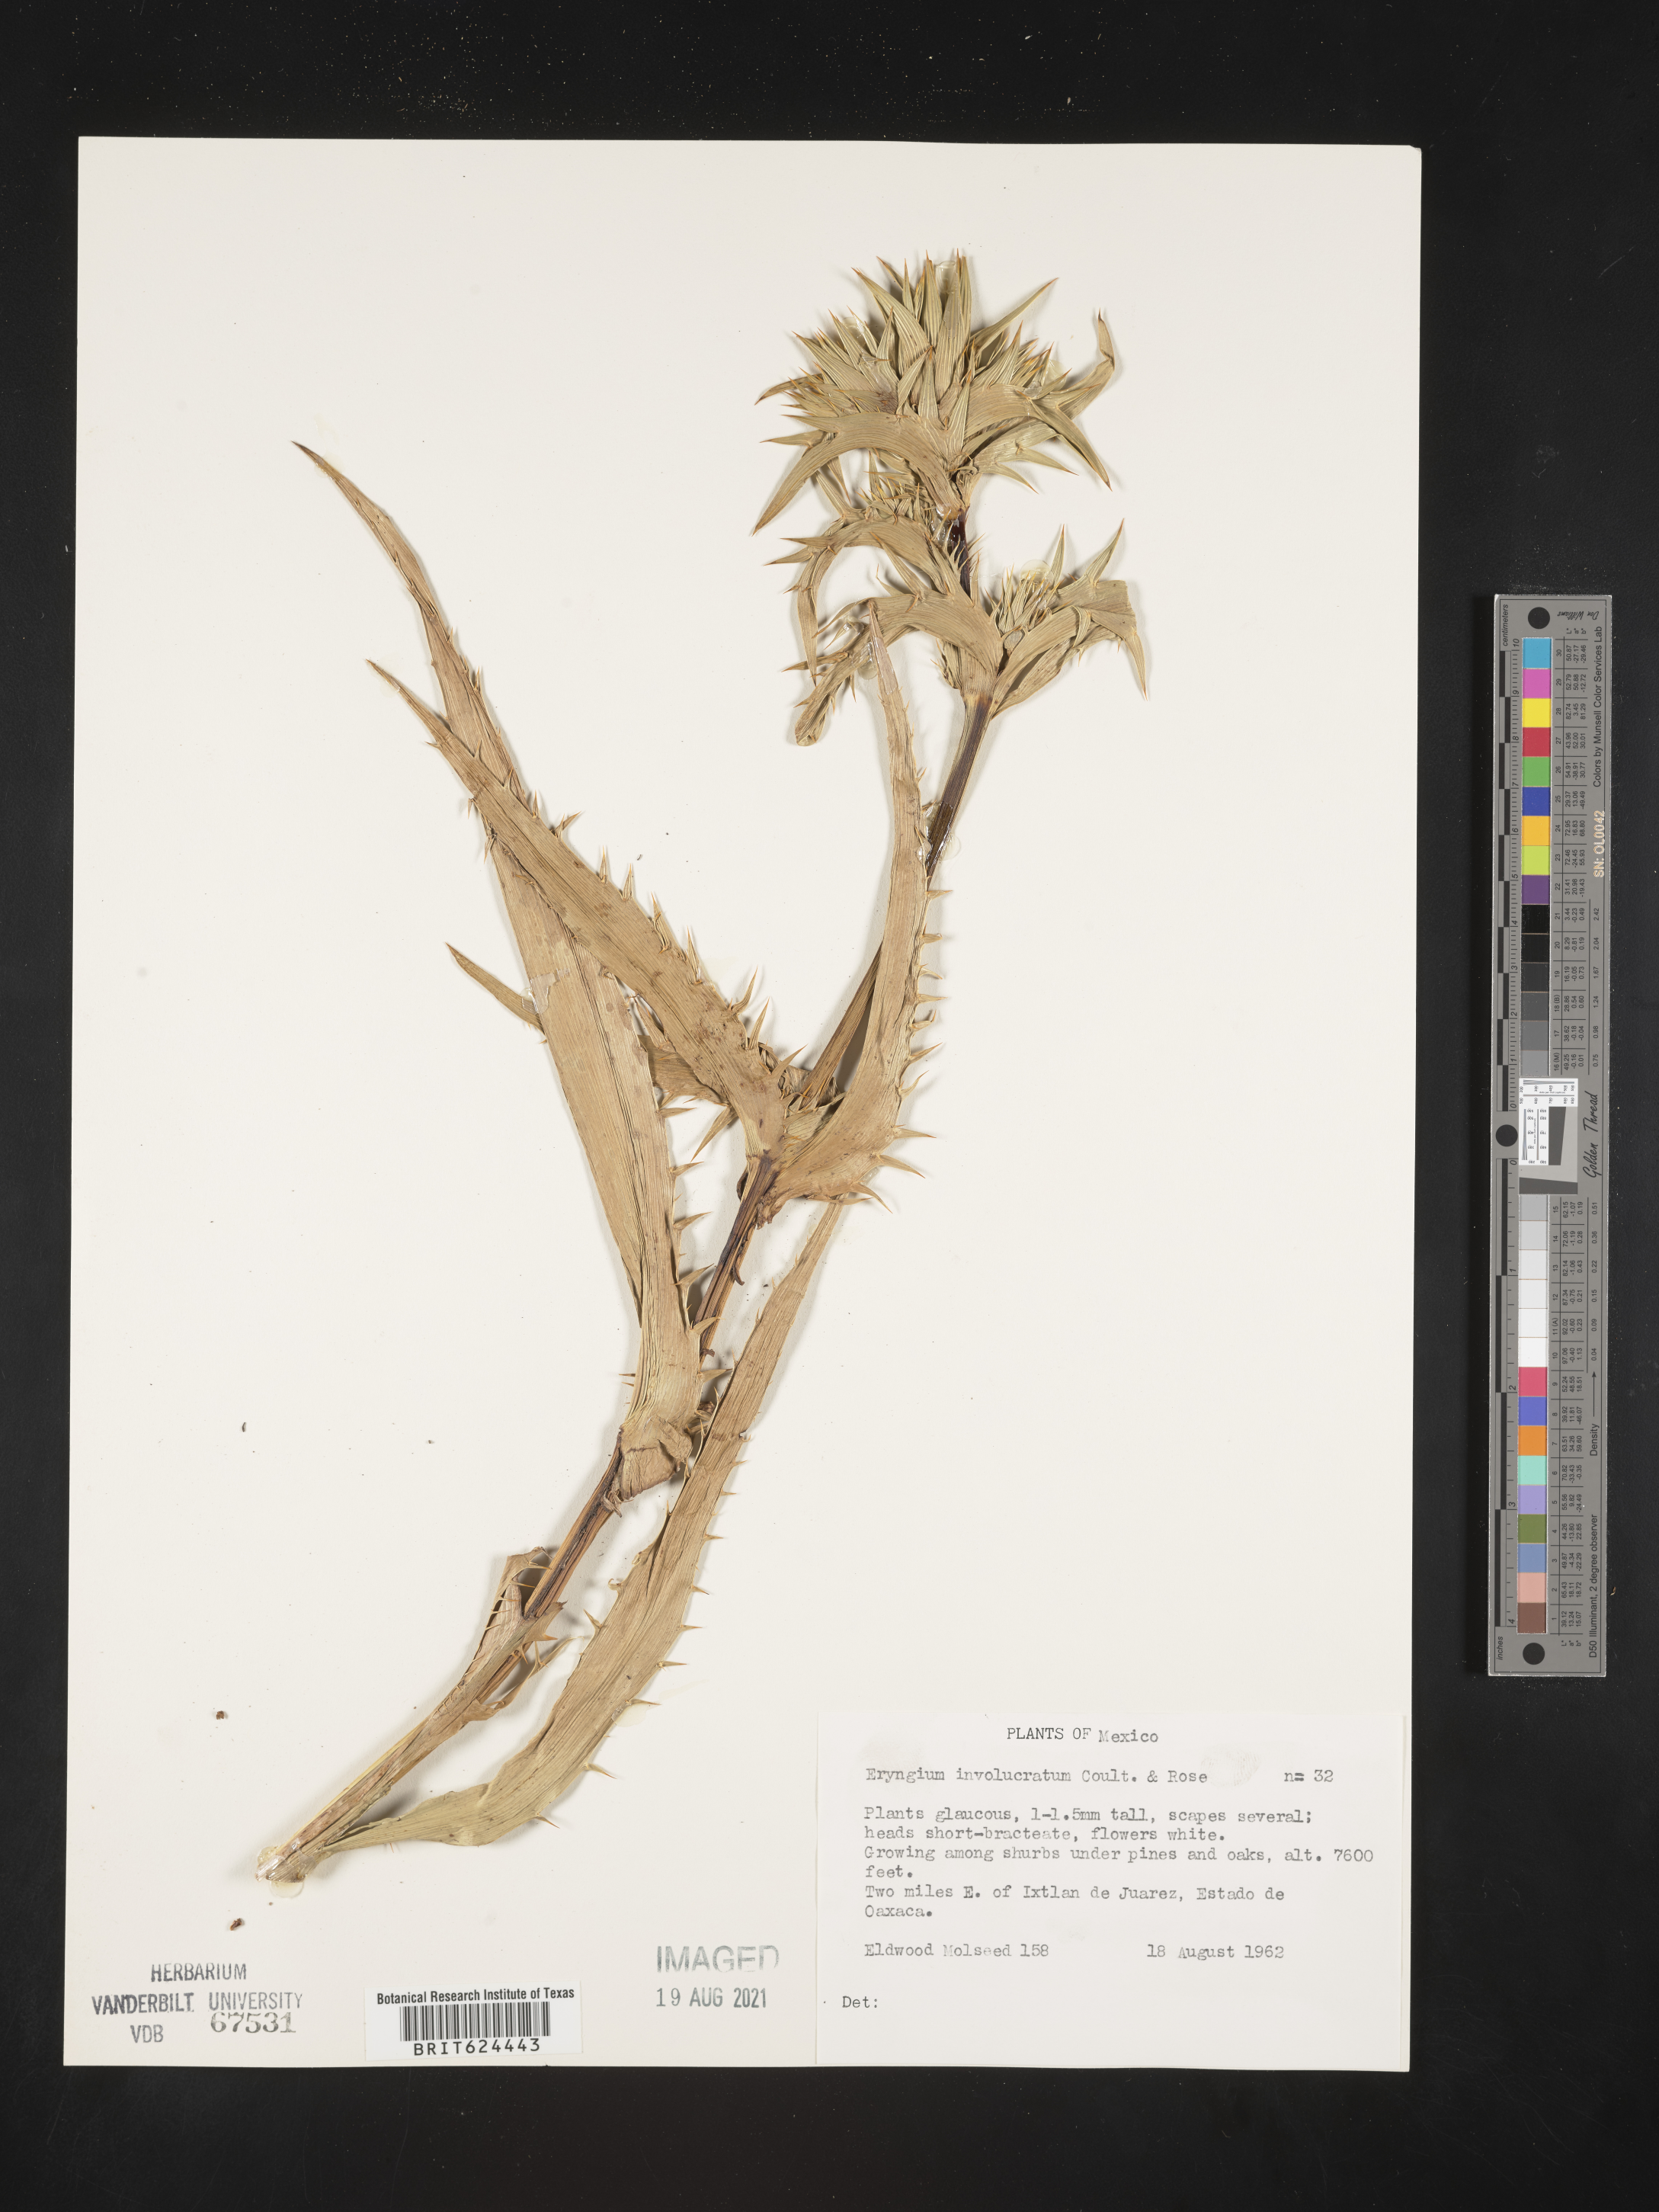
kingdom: Plantae
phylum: Tracheophyta
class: Magnoliopsida
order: Apiales
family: Apiaceae
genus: Eryngium
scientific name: Eryngium
